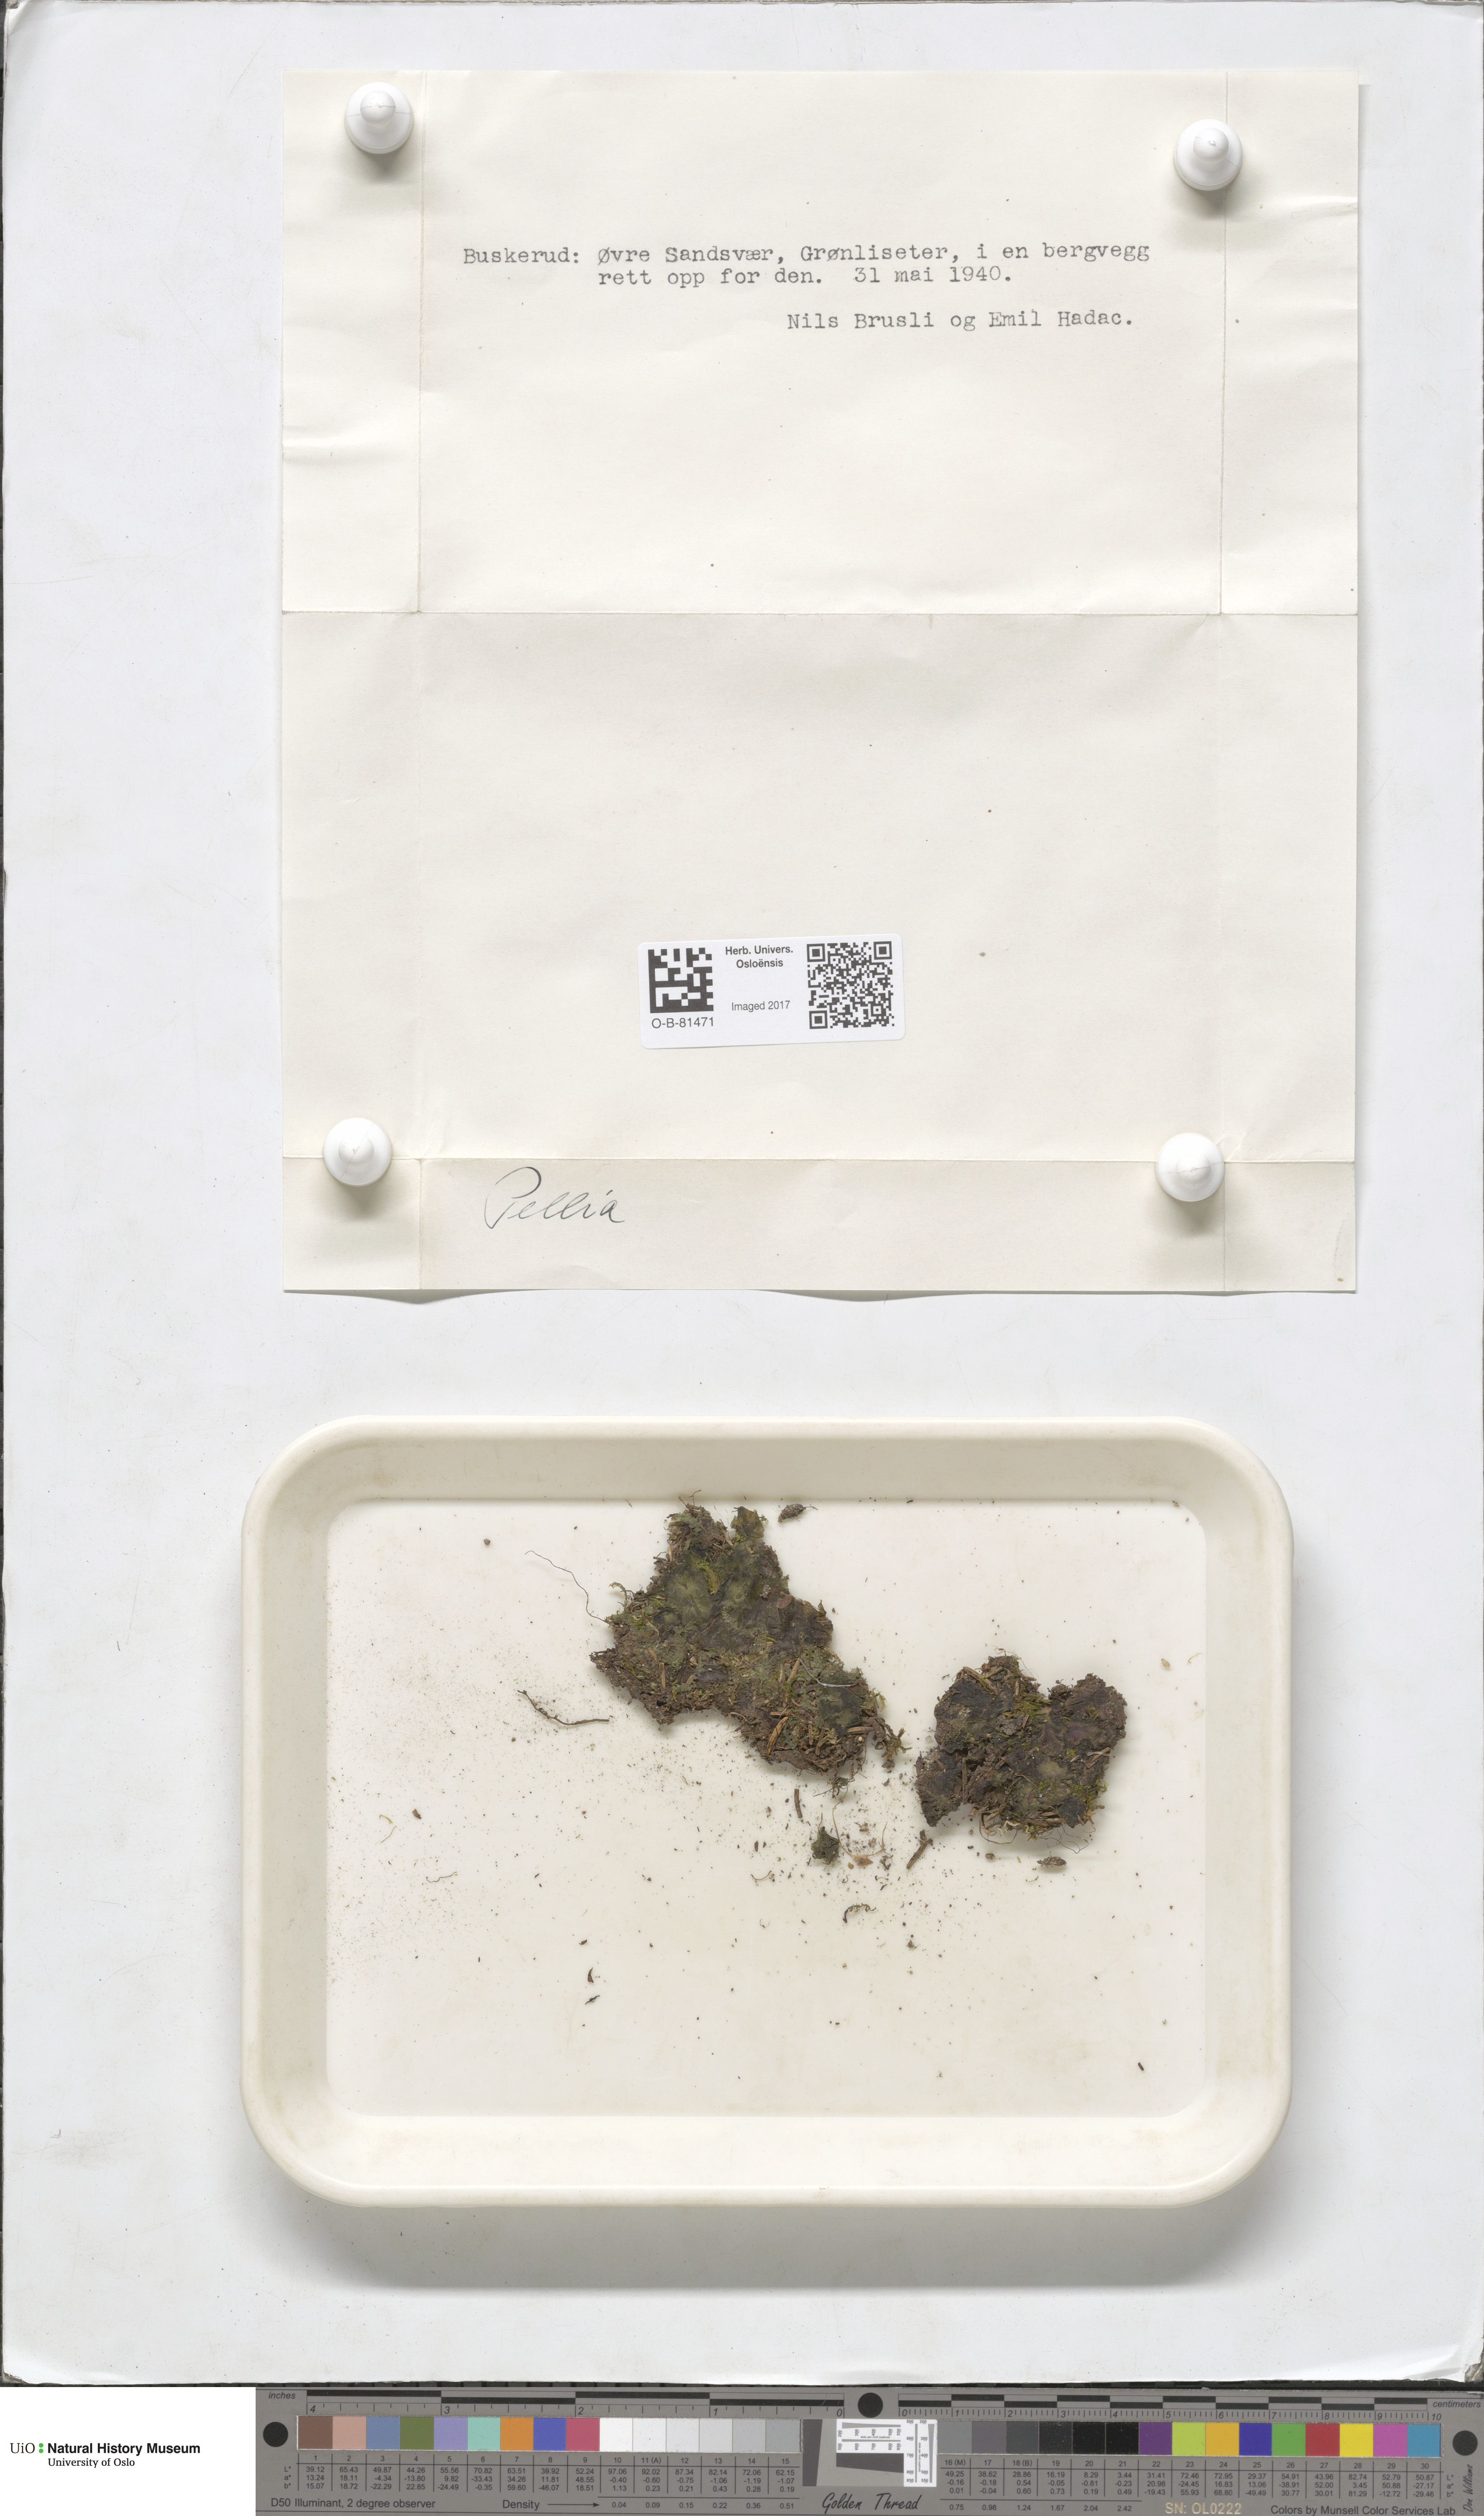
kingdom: Plantae
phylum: Marchantiophyta
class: Jungermanniopsida
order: Pelliales
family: Pelliaceae
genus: Pellia
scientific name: Pellia
